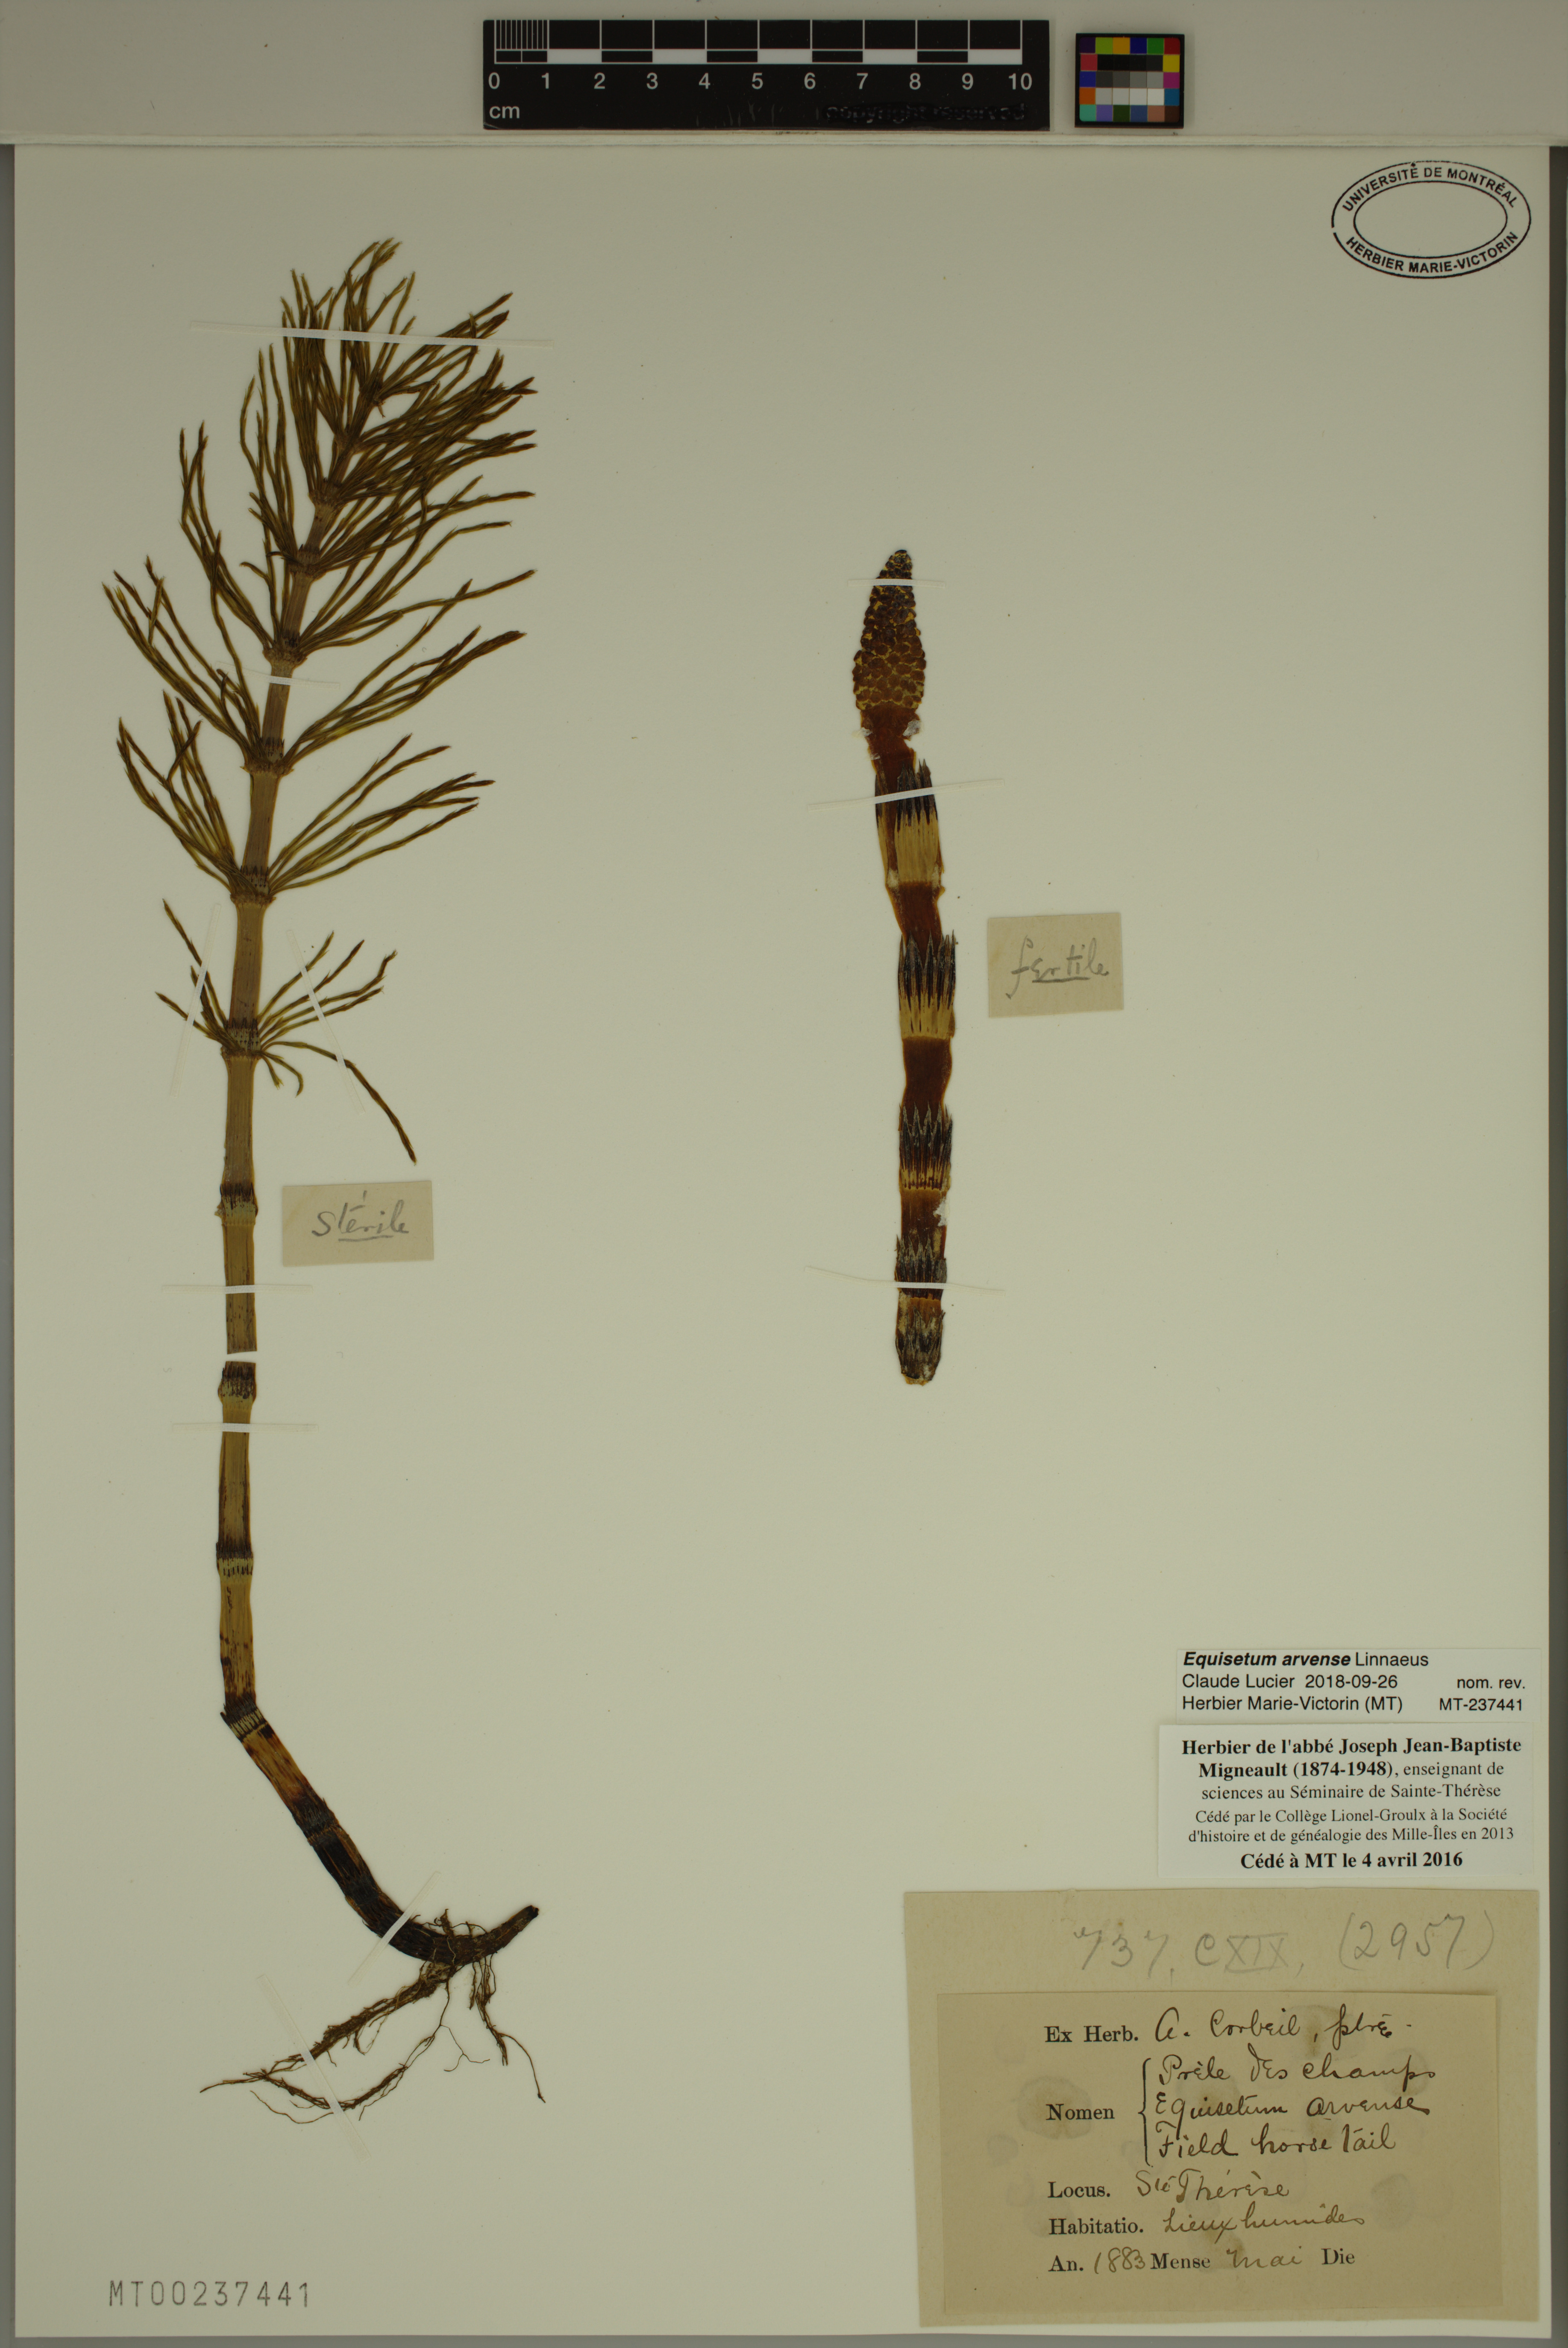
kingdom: Plantae
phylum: Tracheophyta
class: Polypodiopsida
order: Equisetales
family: Equisetaceae
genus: Equisetum
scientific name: Equisetum arvense
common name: Field horsetail
